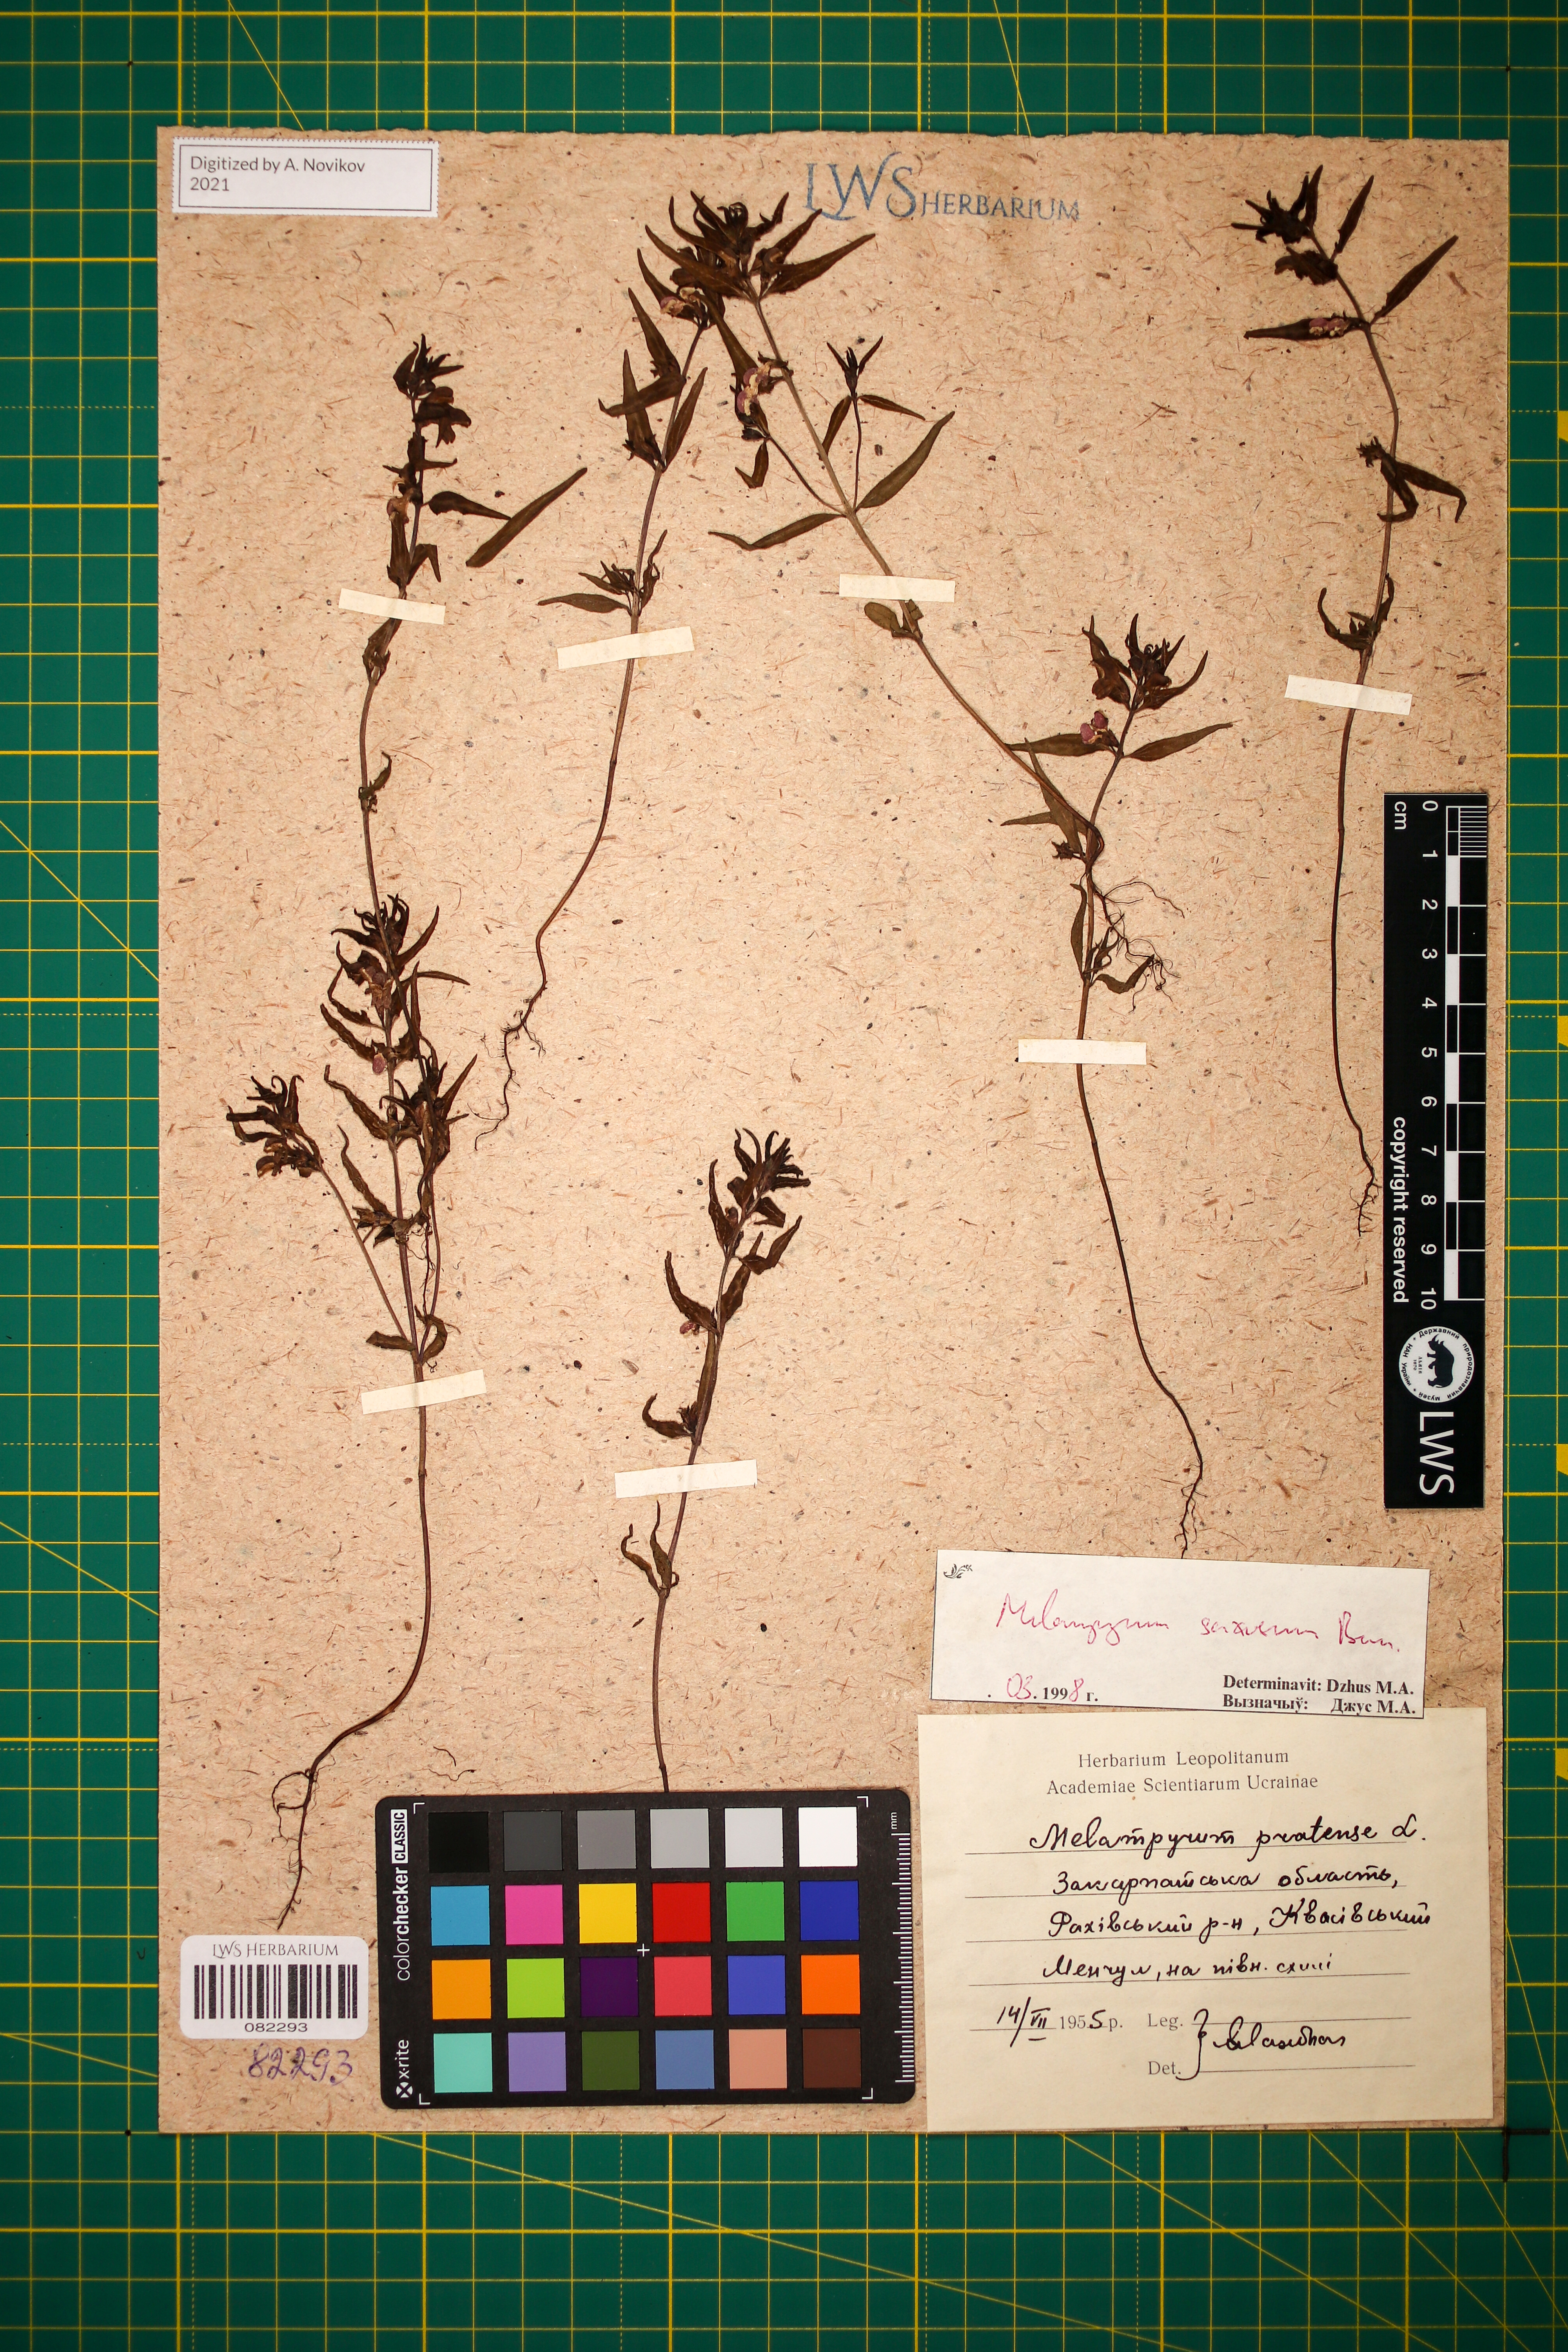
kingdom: Plantae
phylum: Tracheophyta
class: Magnoliopsida
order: Lamiales
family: Orobanchaceae
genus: Melampyrum
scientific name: Melampyrum saxosum
